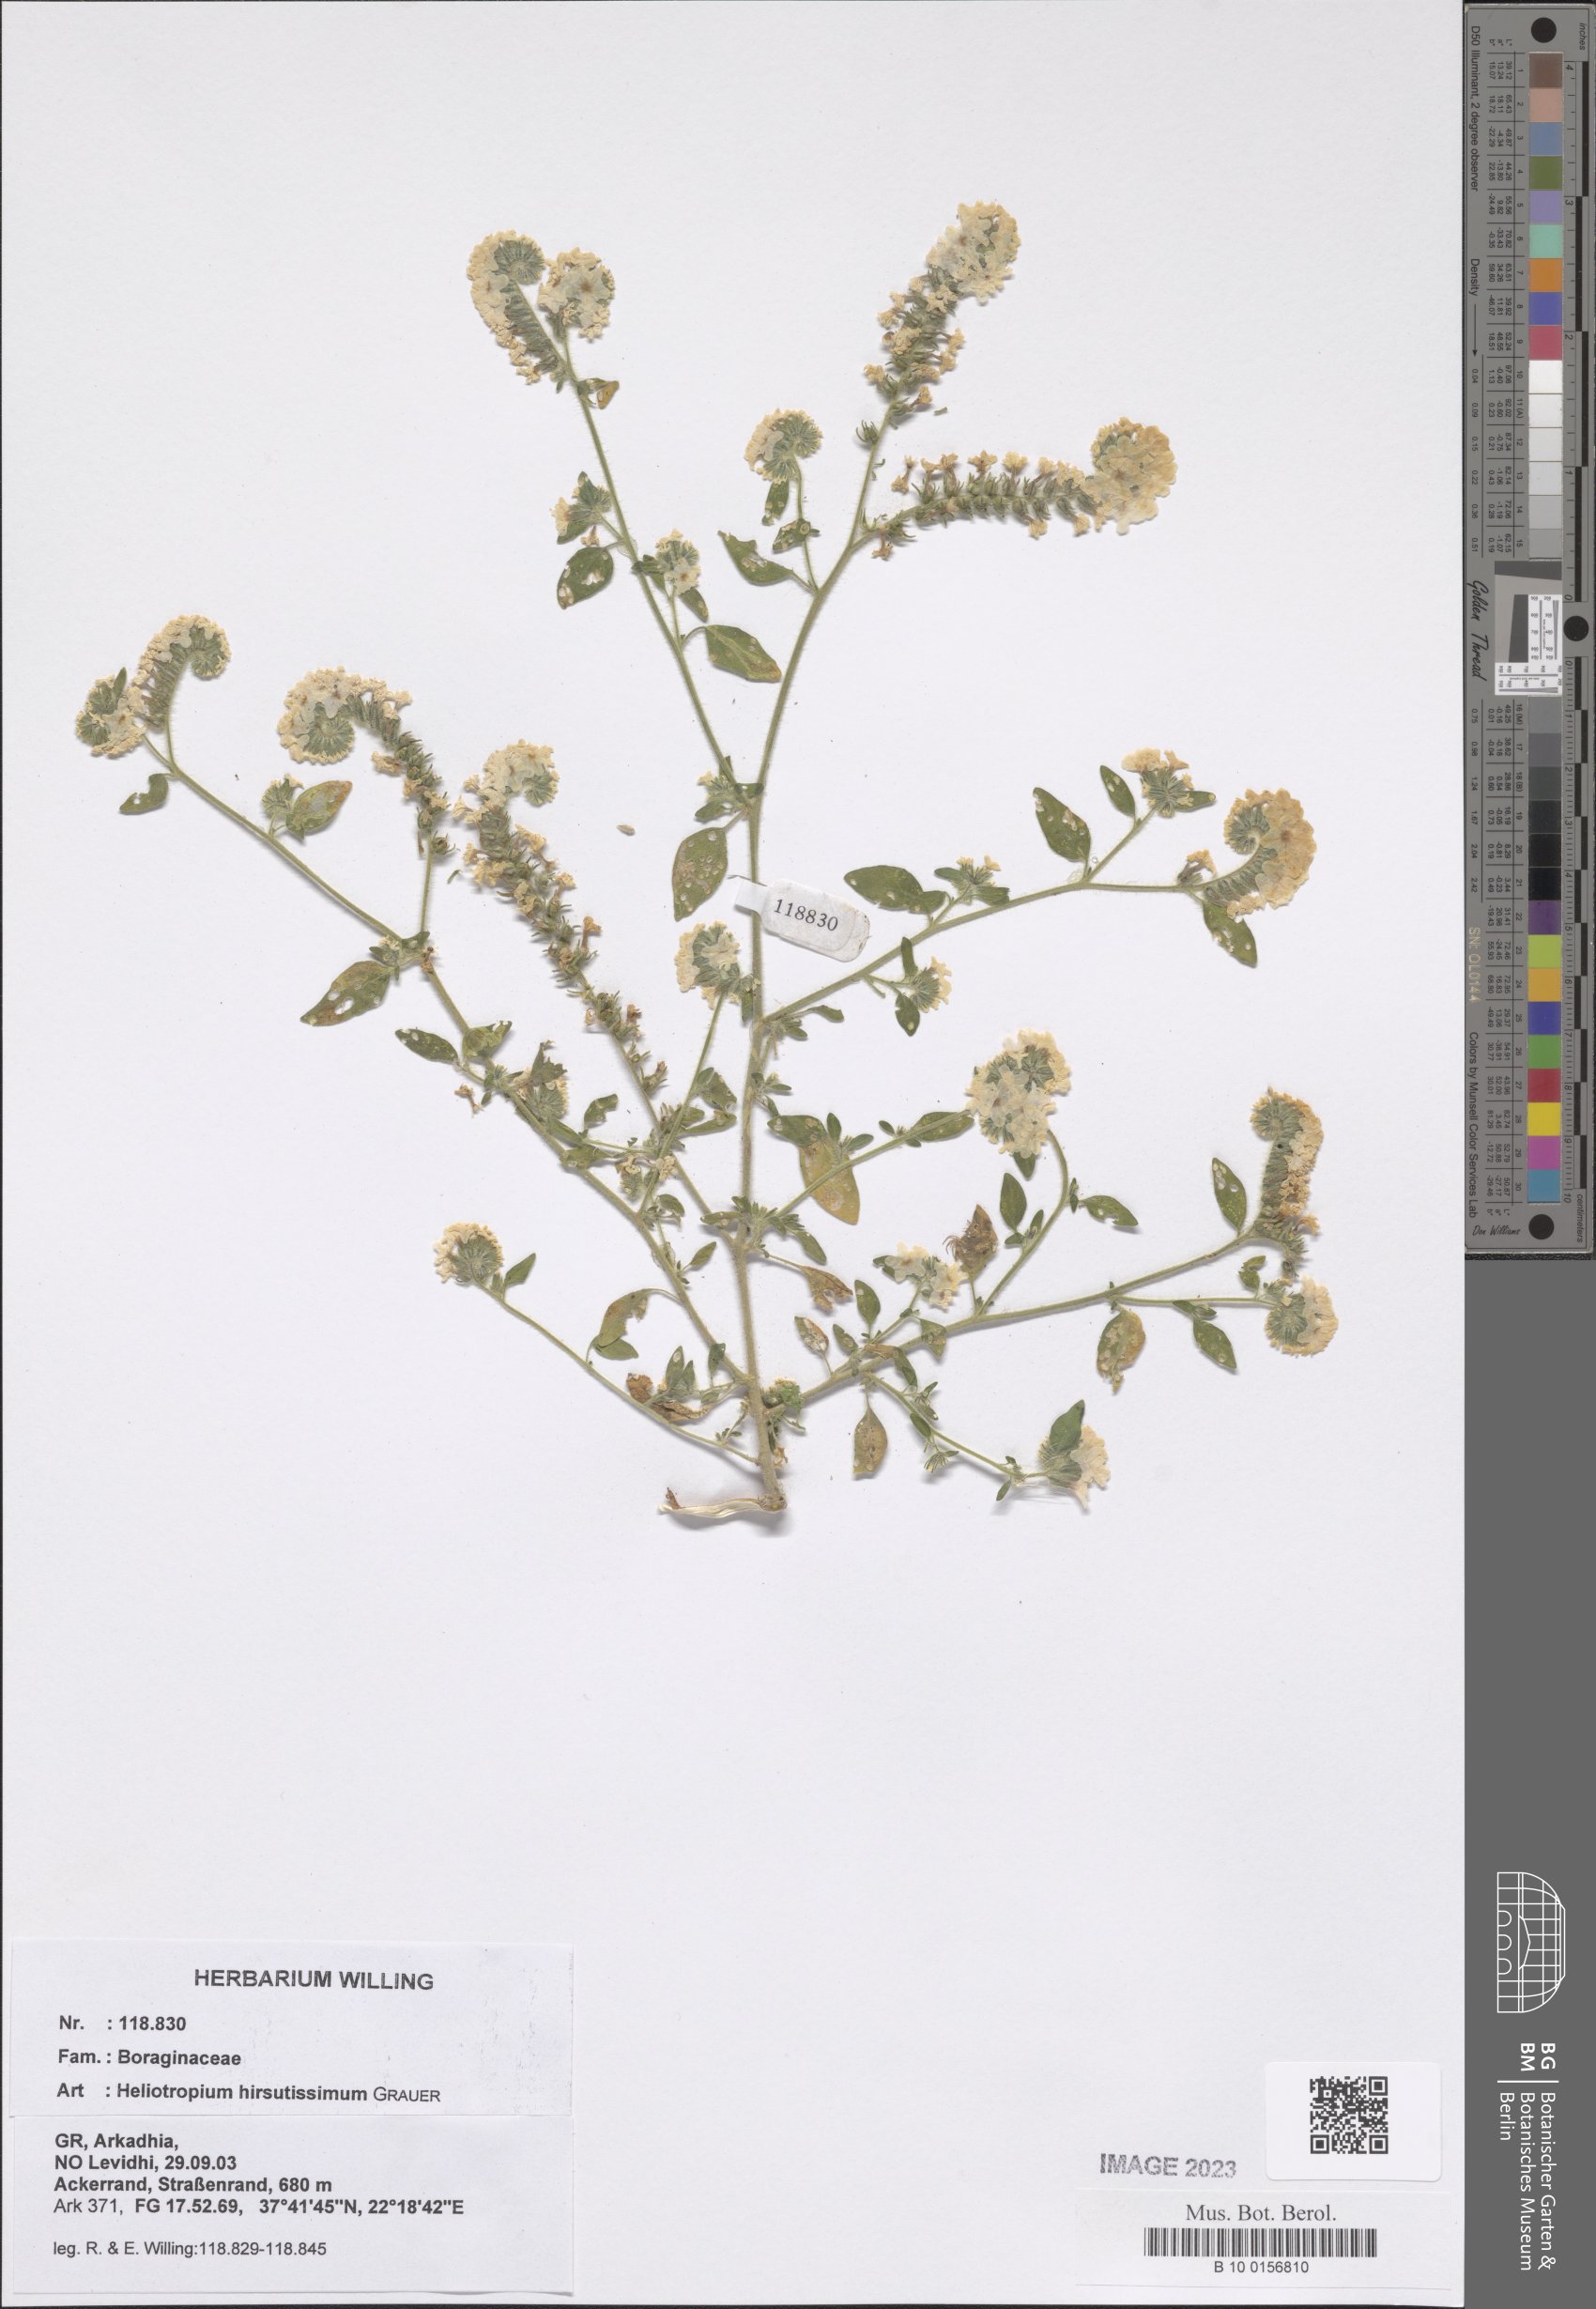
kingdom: Plantae
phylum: Tracheophyta
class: Magnoliopsida
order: Boraginales
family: Heliotropiaceae
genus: Heliotropium
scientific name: Heliotropium hirsutissimum
